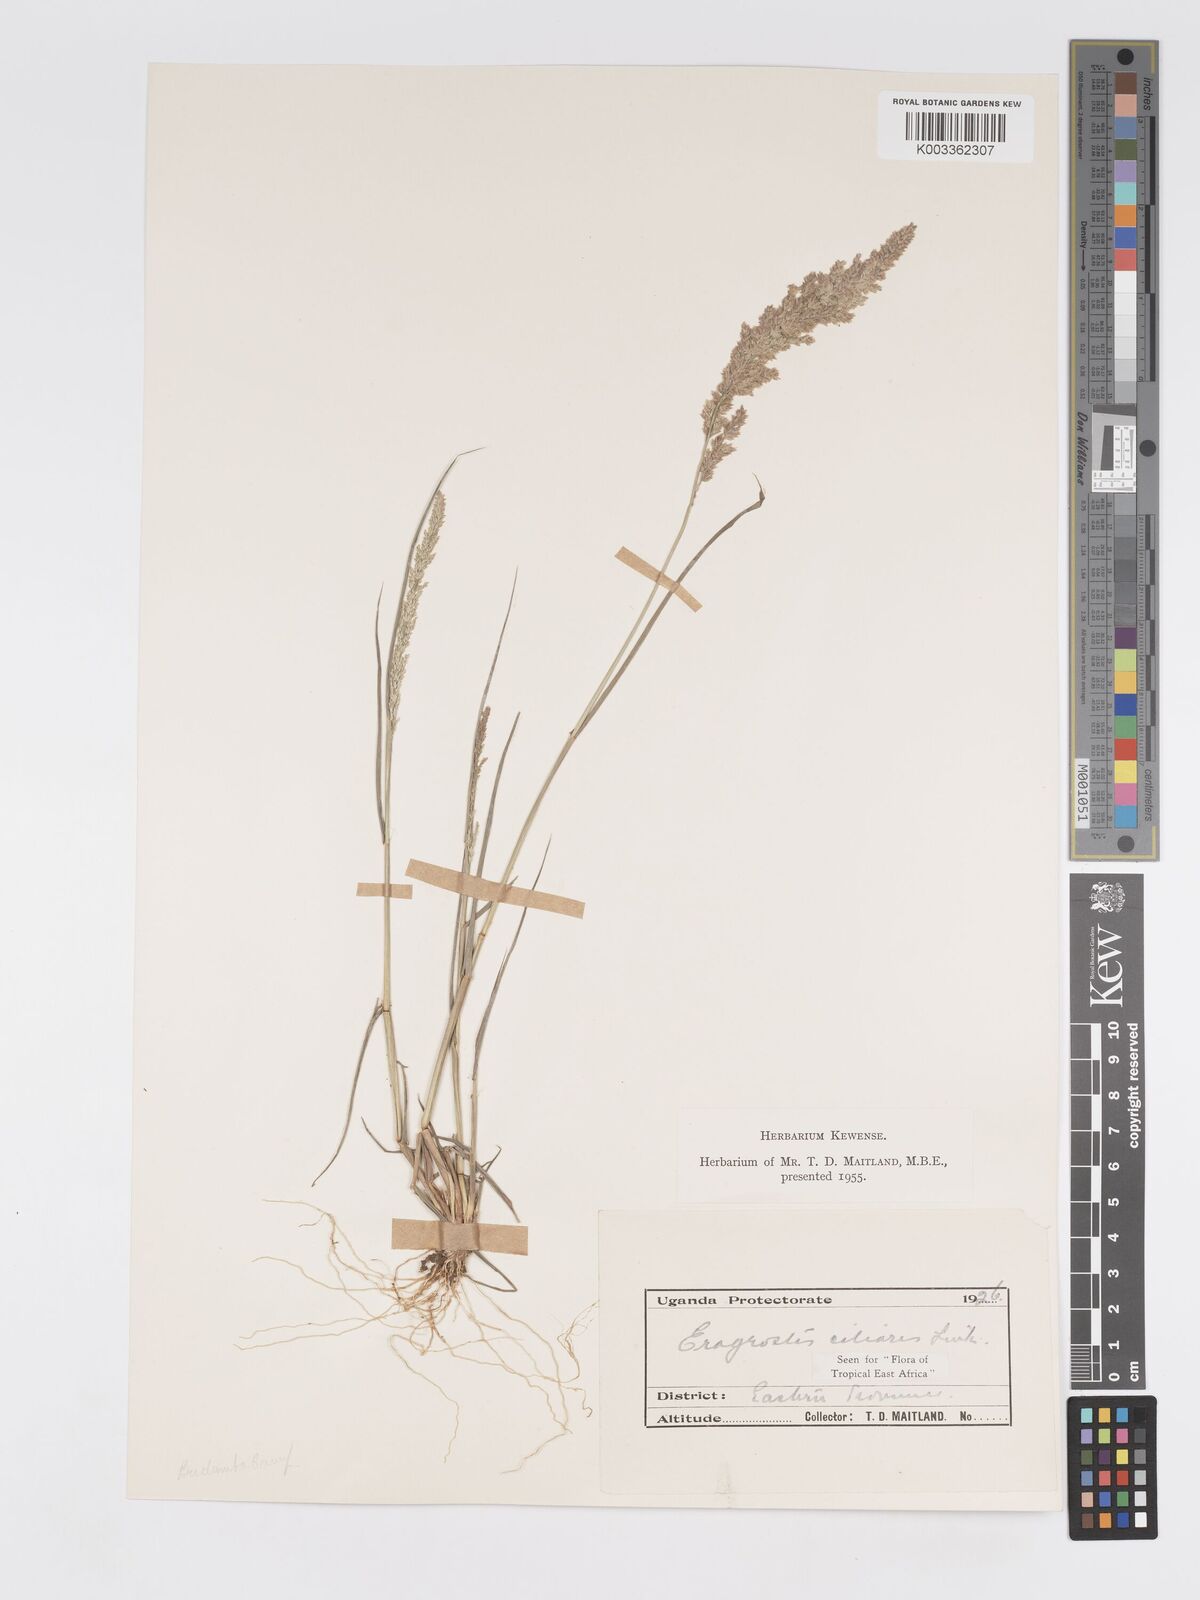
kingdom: Plantae
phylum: Tracheophyta
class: Liliopsida
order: Poales
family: Poaceae
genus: Eragrostis
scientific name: Eragrostis ciliaris
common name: Gophertail lovegrass
